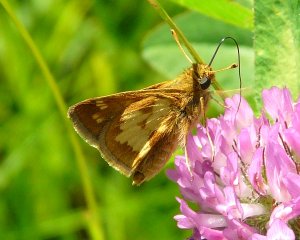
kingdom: Animalia
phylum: Arthropoda
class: Insecta
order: Lepidoptera
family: Hesperiidae
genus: Polites
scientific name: Polites coras
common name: Peck's Skipper
